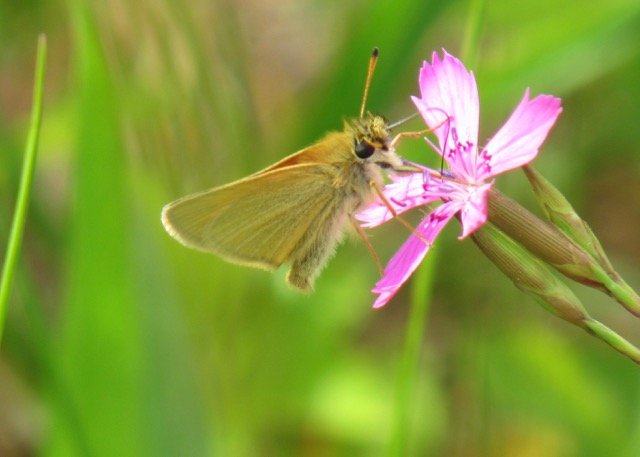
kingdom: Animalia
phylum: Arthropoda
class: Insecta
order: Lepidoptera
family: Hesperiidae
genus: Thymelicus
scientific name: Thymelicus lineola
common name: European Skipper
